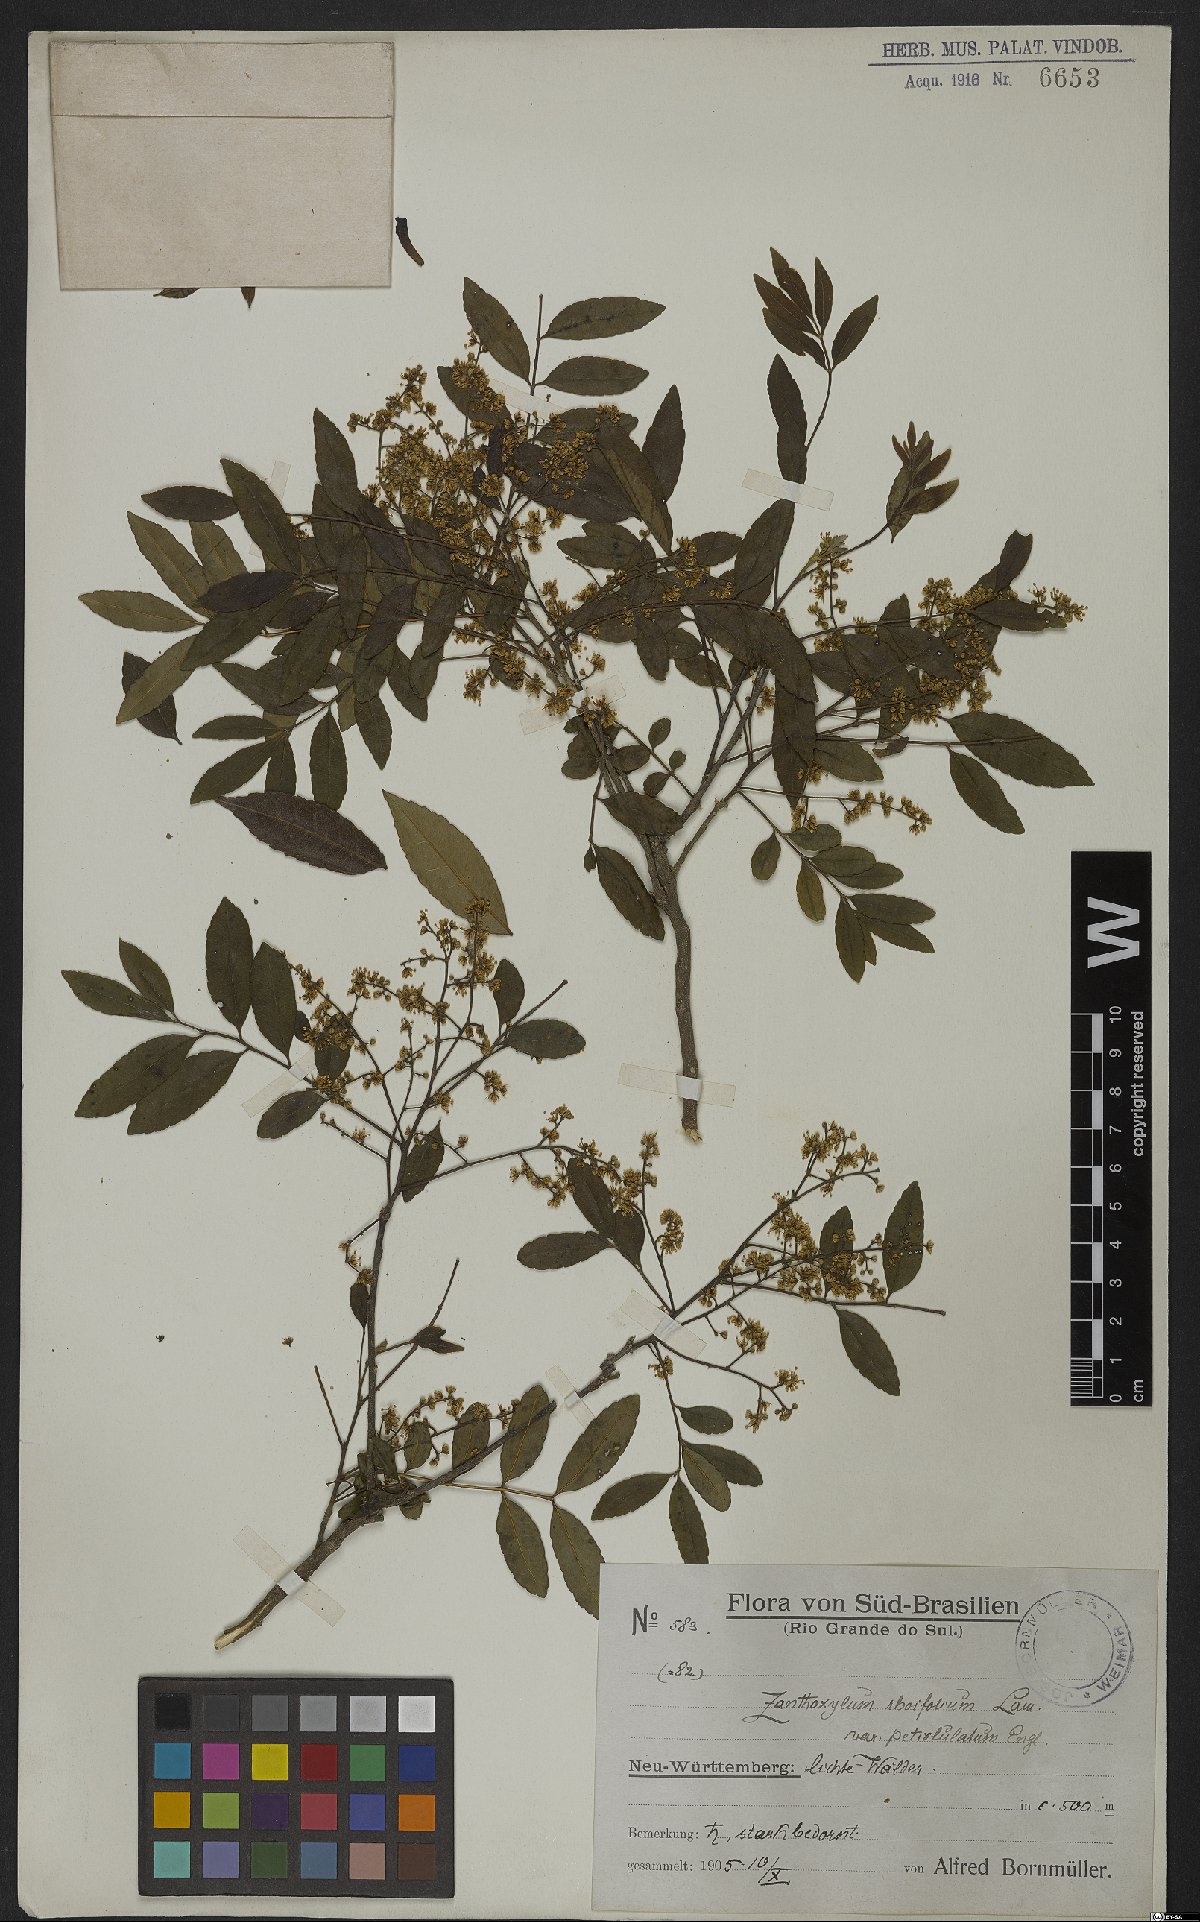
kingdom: Plantae
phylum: Tracheophyta
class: Magnoliopsida
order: Sapindales
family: Rutaceae
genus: Zanthoxylum
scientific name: Zanthoxylum rhoifolium
